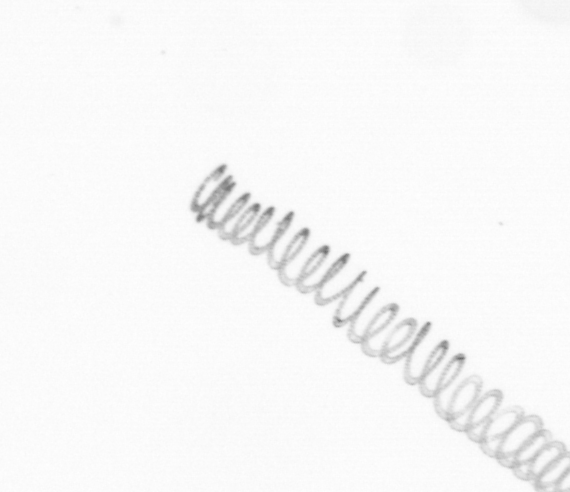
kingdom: Chromista
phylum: Ochrophyta
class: Bacillariophyceae
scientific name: Bacillariophyceae
